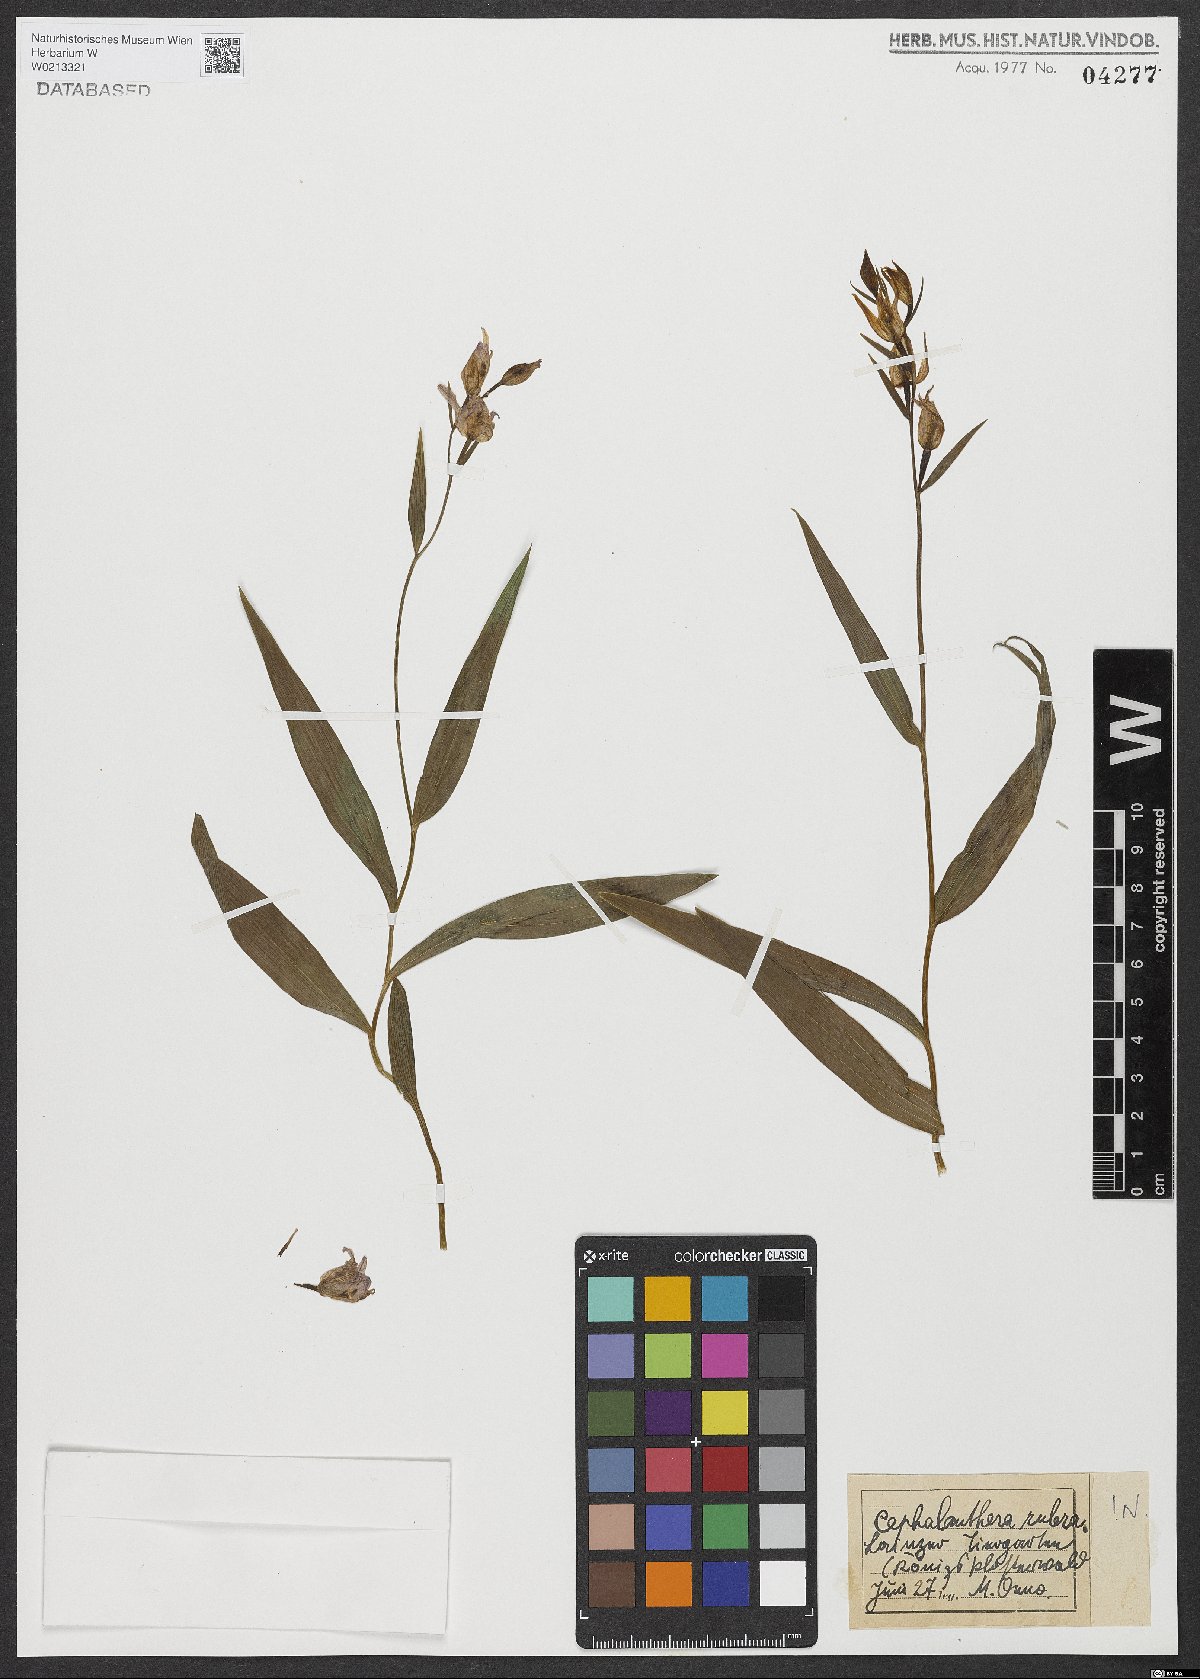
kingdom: Plantae
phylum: Tracheophyta
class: Liliopsida
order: Asparagales
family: Orchidaceae
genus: Cephalanthera
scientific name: Cephalanthera rubra
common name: Red helleborine
